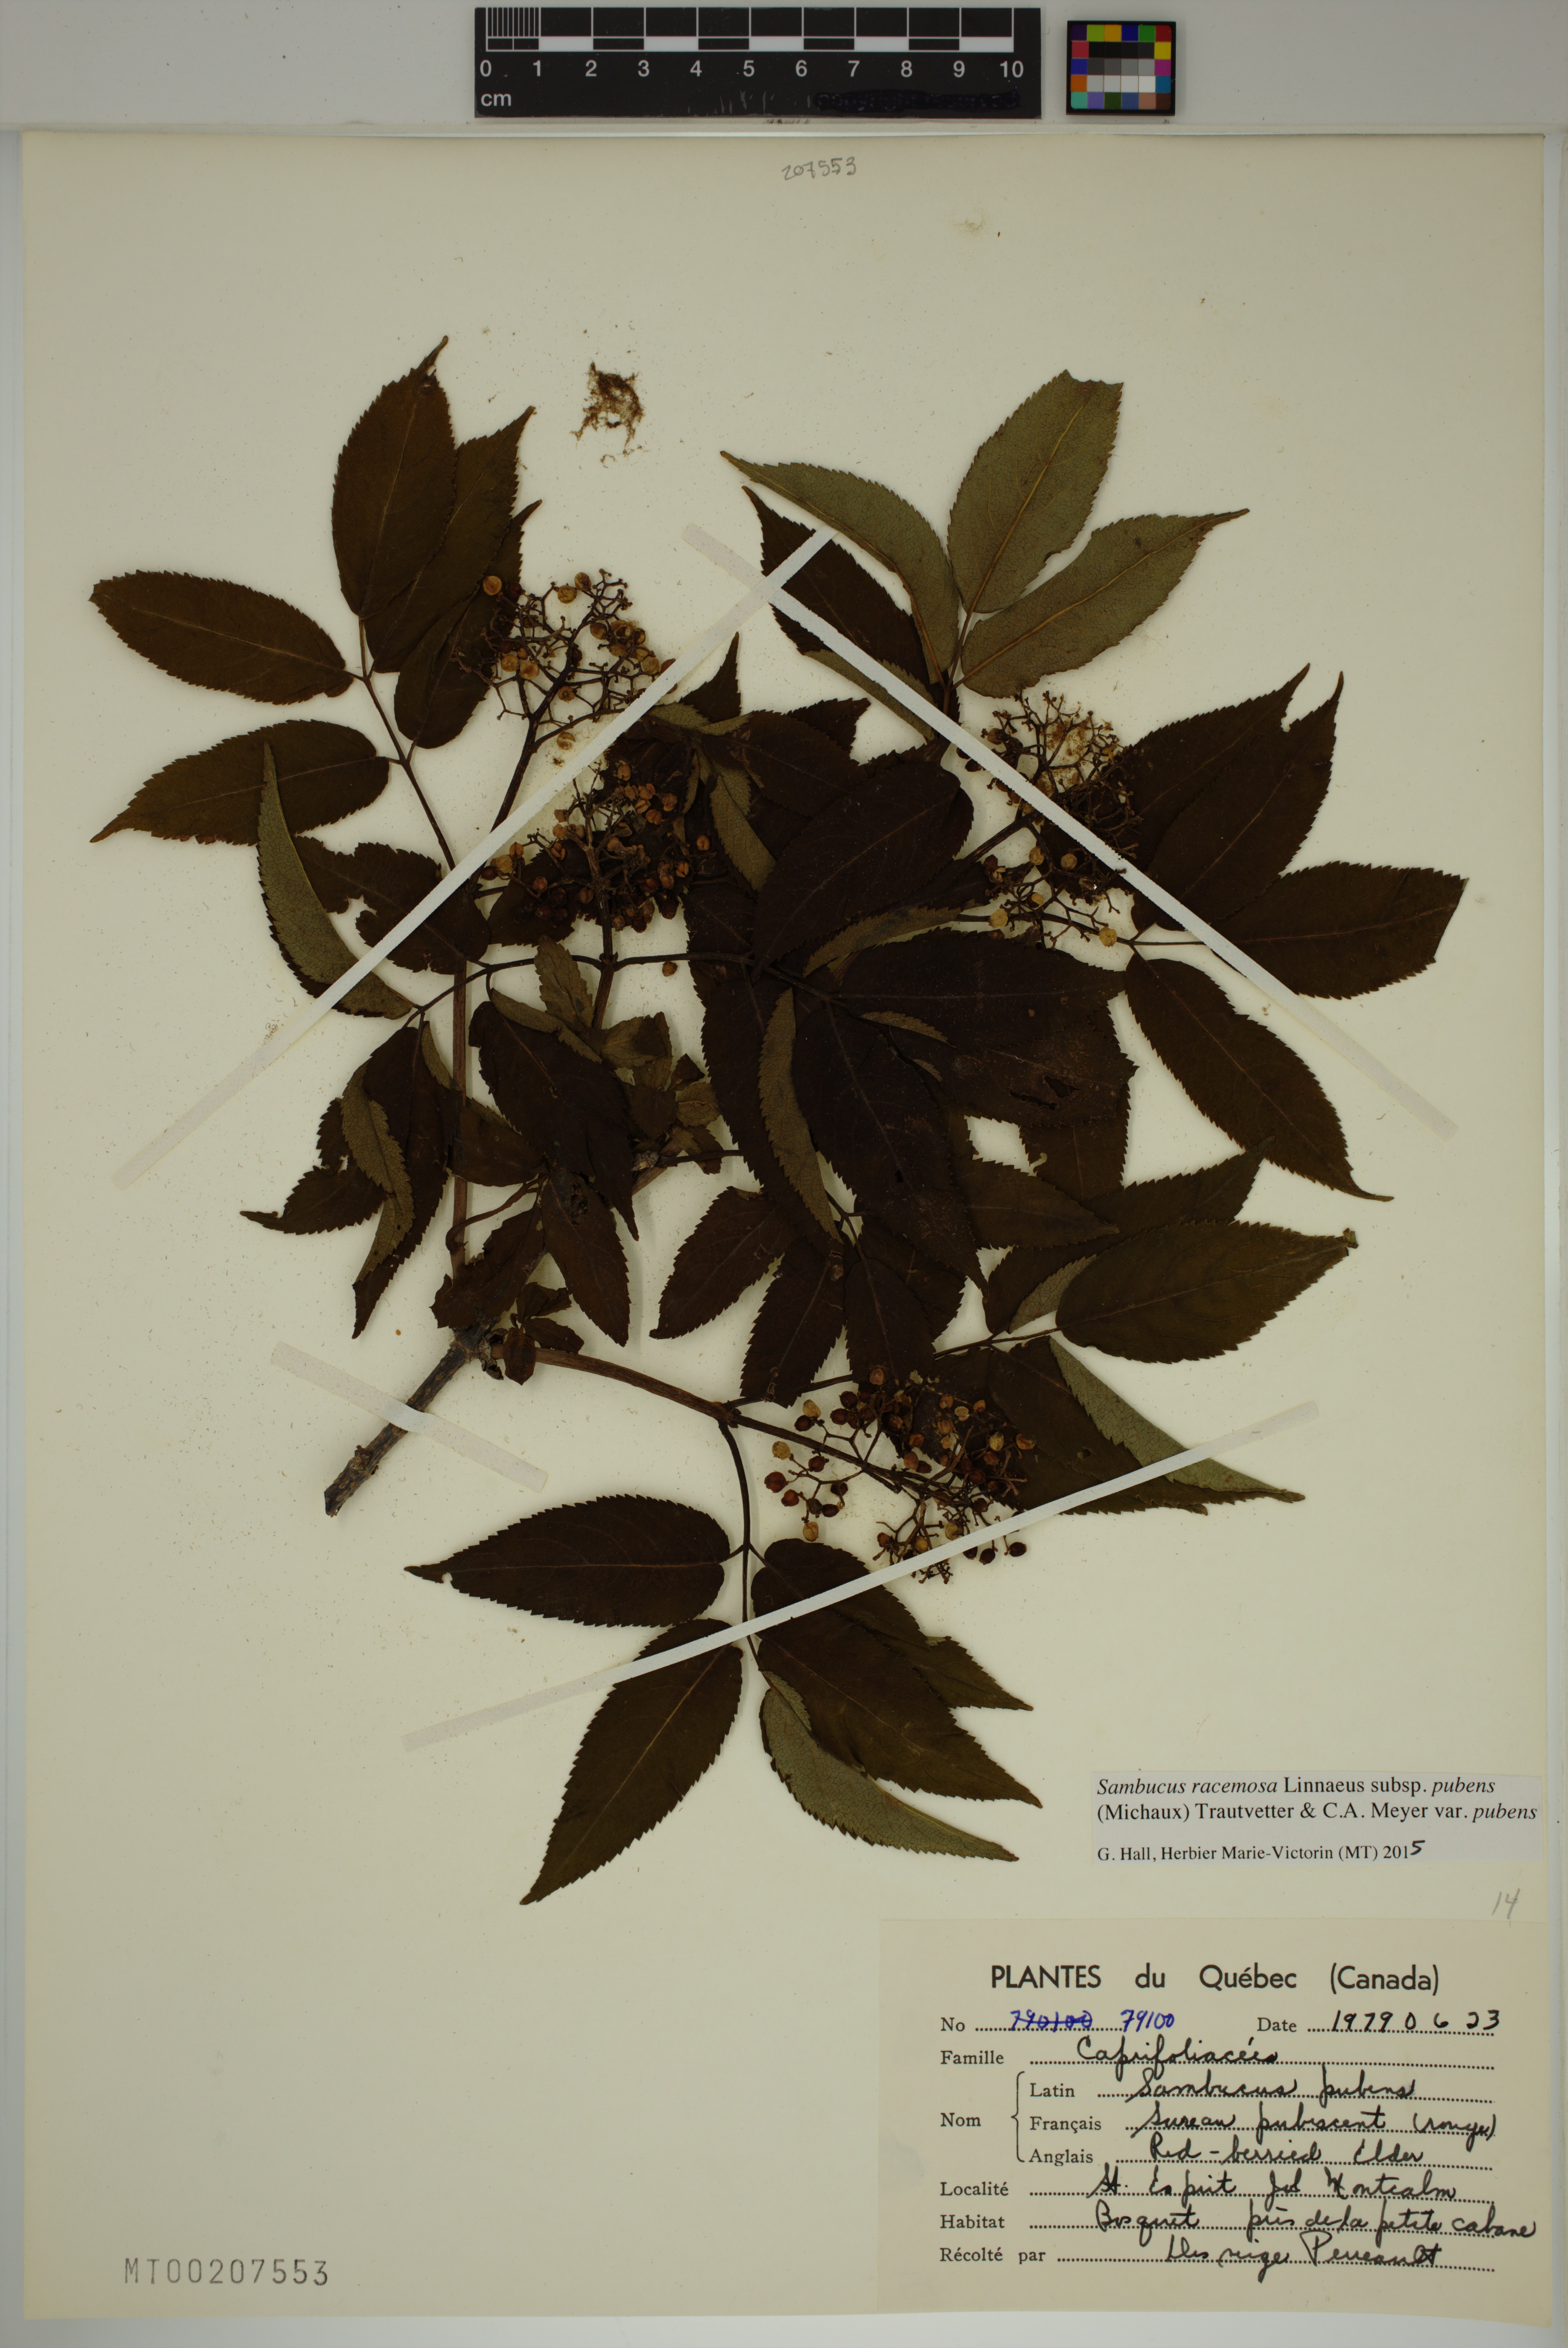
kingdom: Plantae
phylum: Tracheophyta
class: Magnoliopsida
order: Dipsacales
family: Viburnaceae
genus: Sambucus
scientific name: Sambucus racemosa
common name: Red-berried elder
